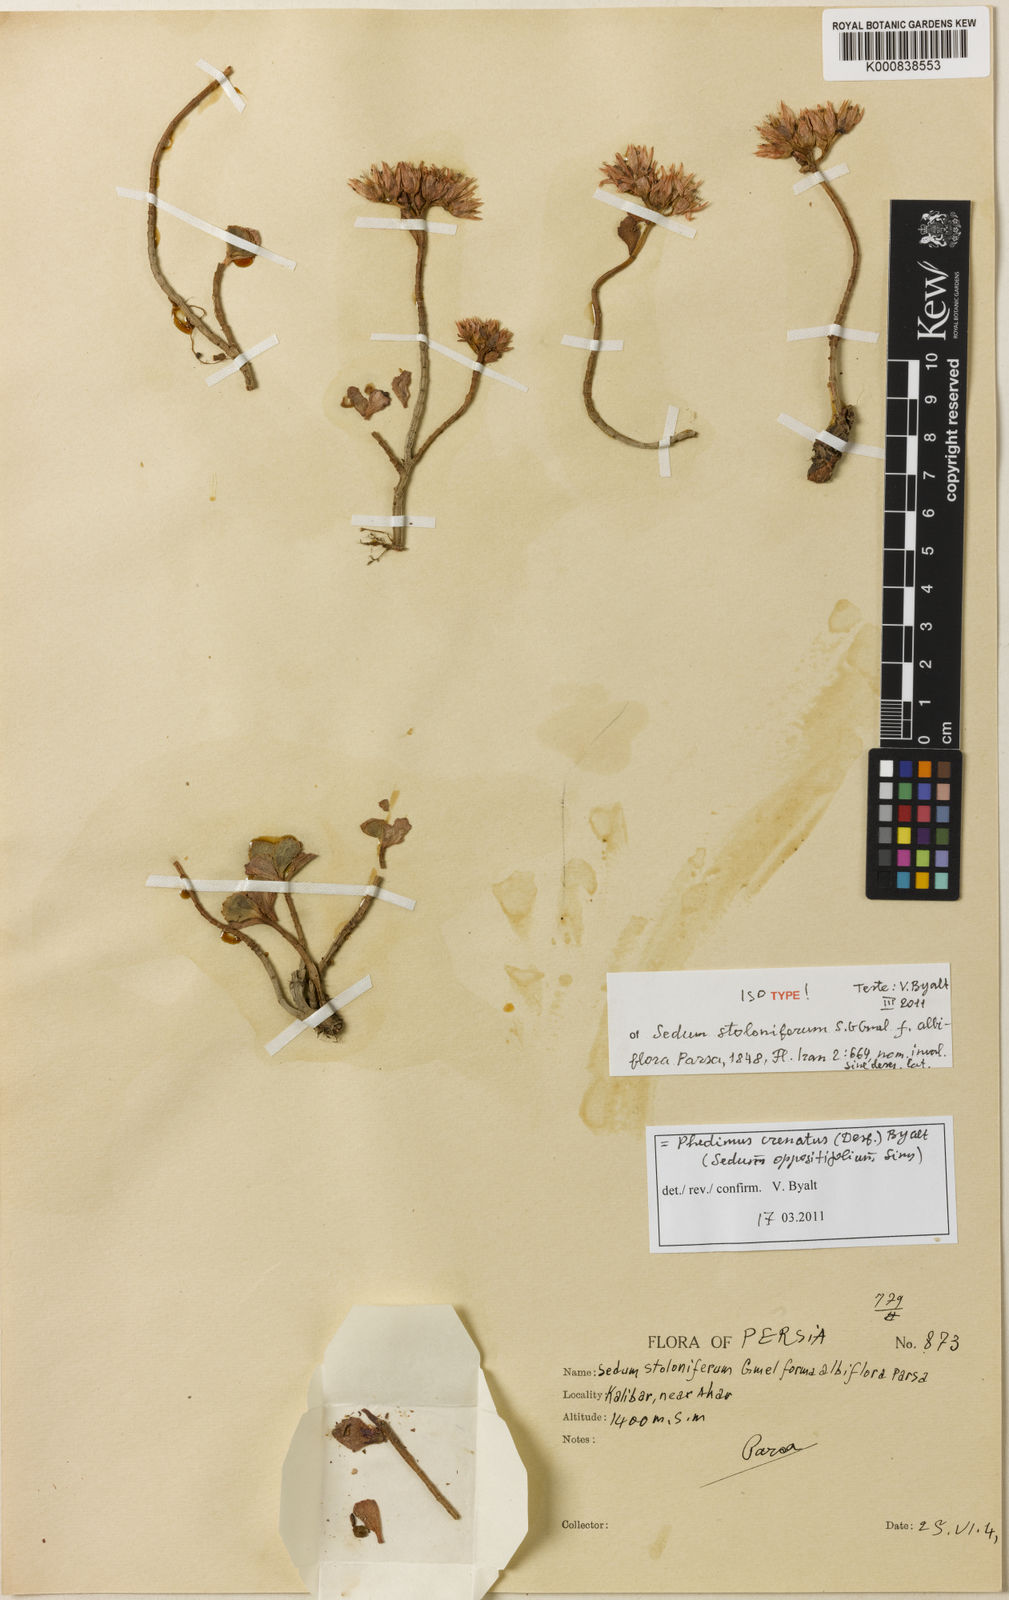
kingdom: Plantae
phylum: Tracheophyta
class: Magnoliopsida
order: Saxifragales
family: Crassulaceae
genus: Phedimus
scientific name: Phedimus stolonifer
